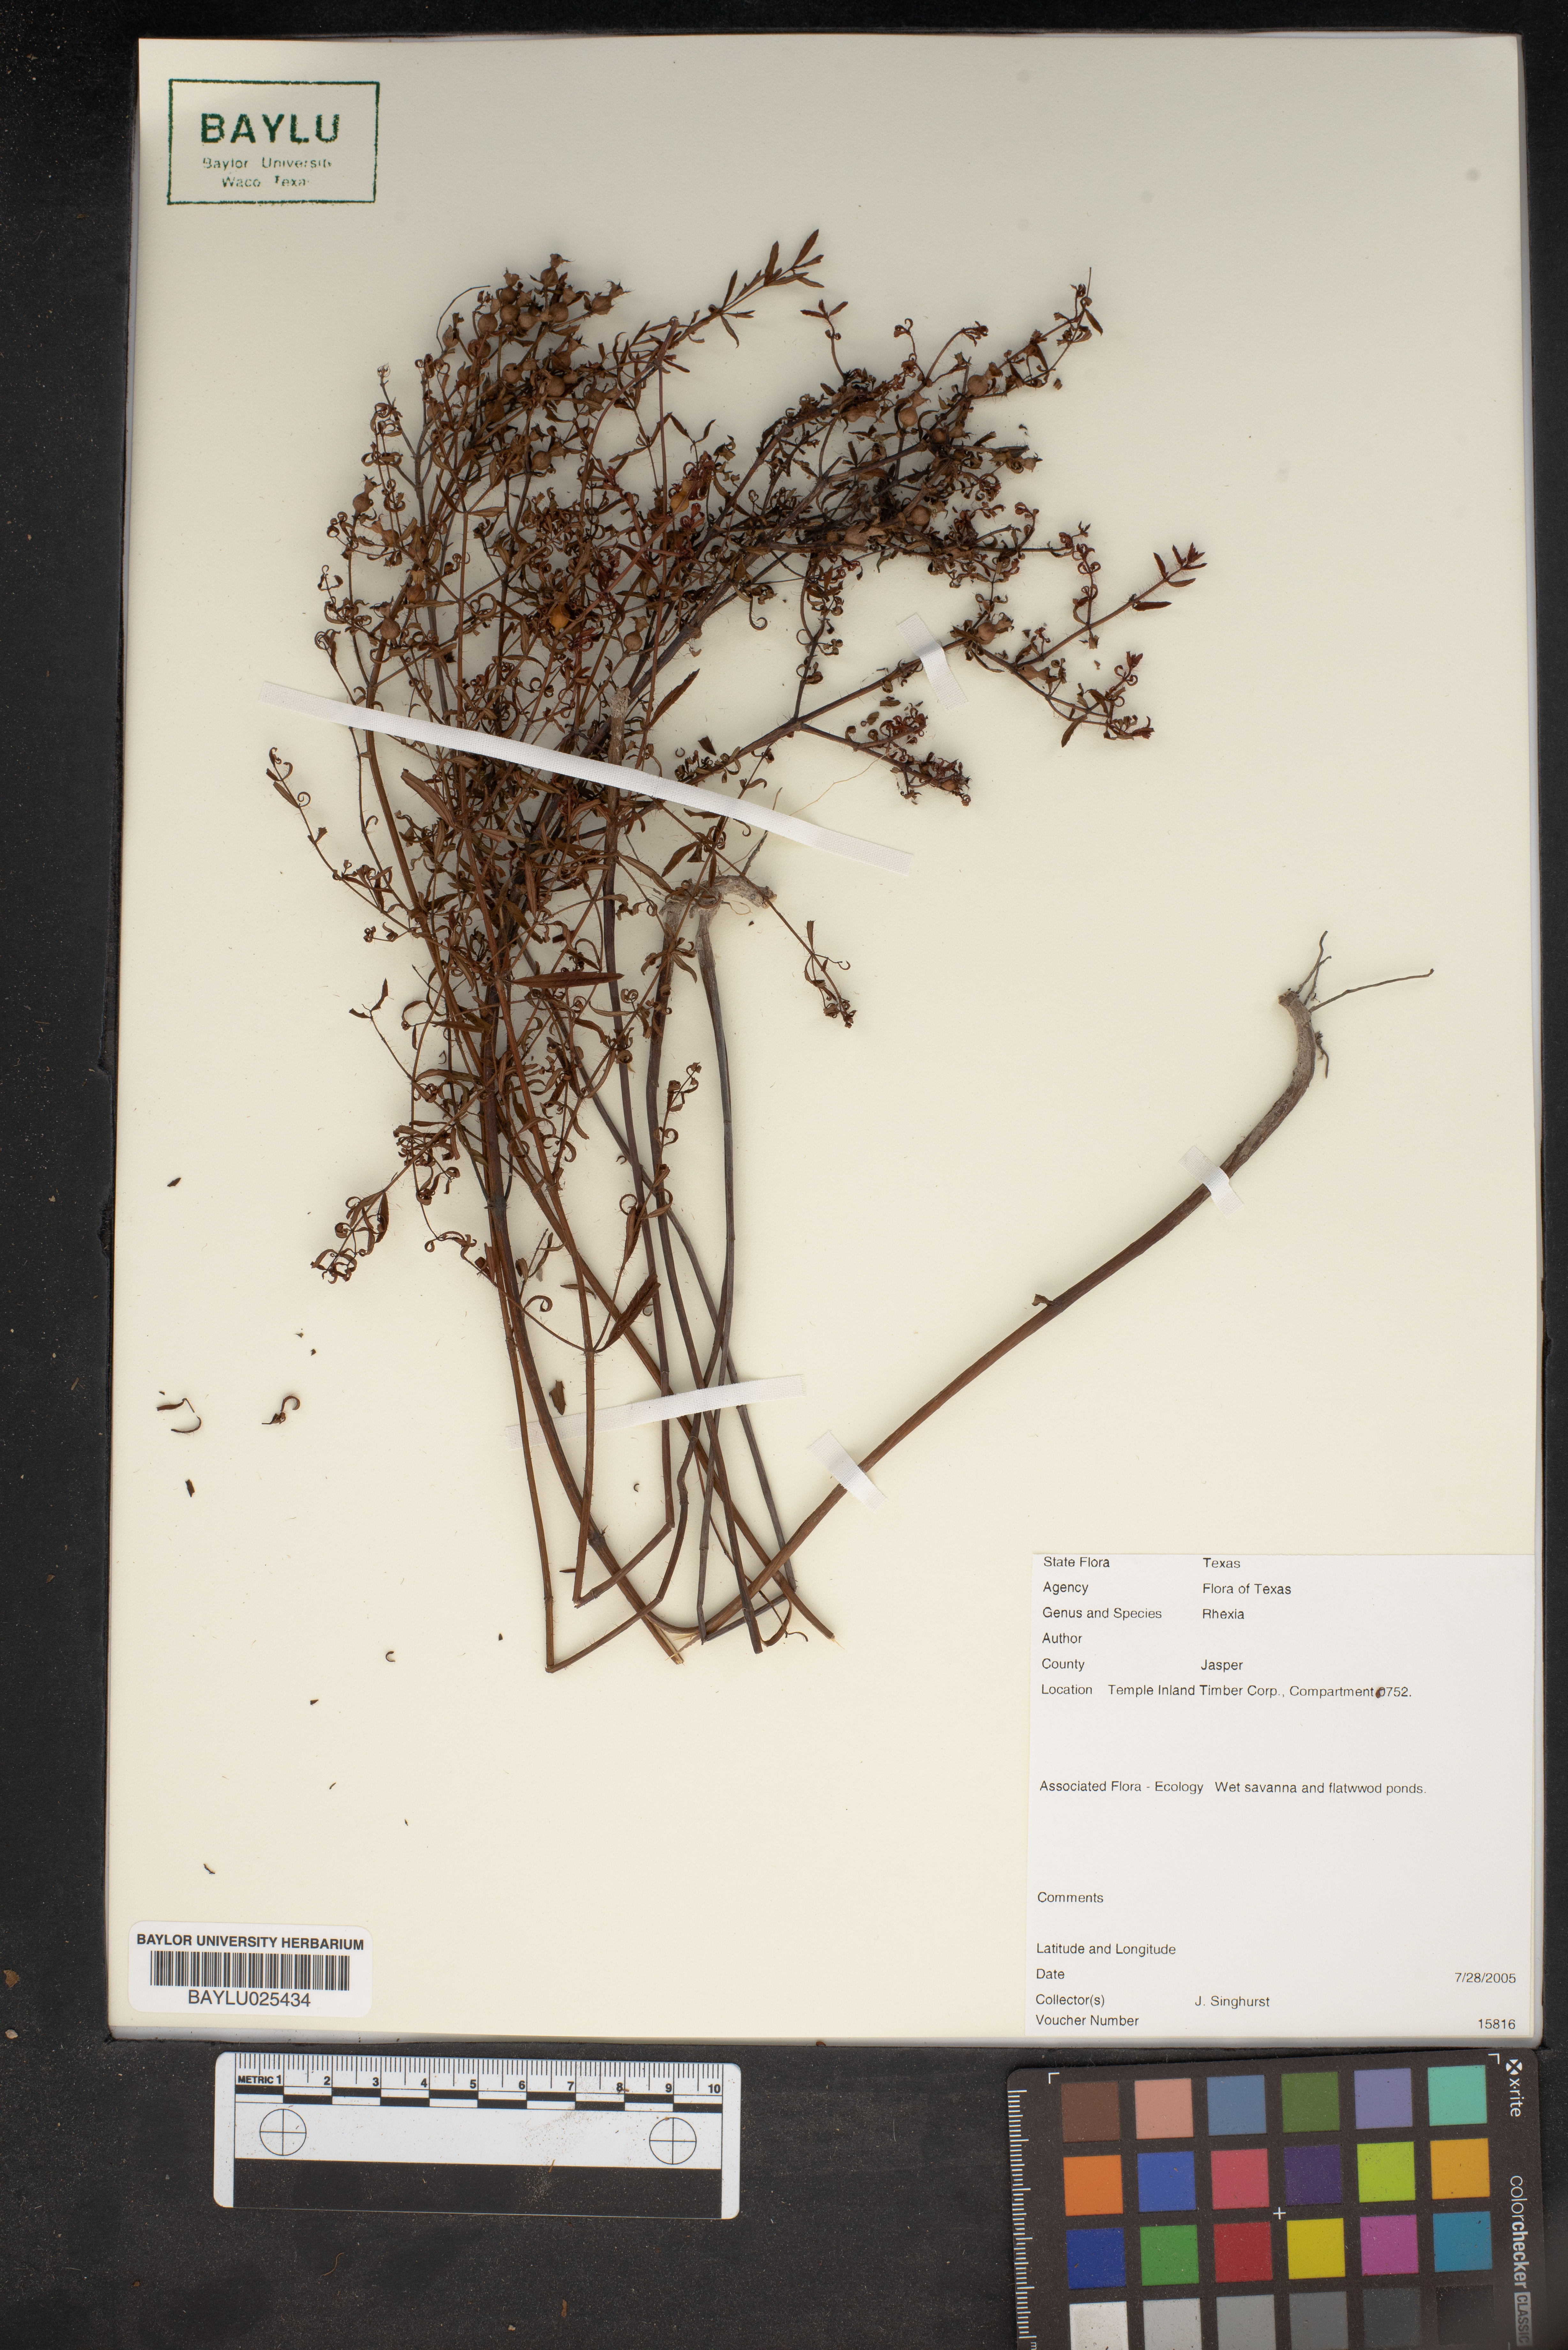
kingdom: Plantae
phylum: Tracheophyta
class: Magnoliopsida
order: Myrtales
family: Melastomataceae
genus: Rhexia
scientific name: Rhexia
